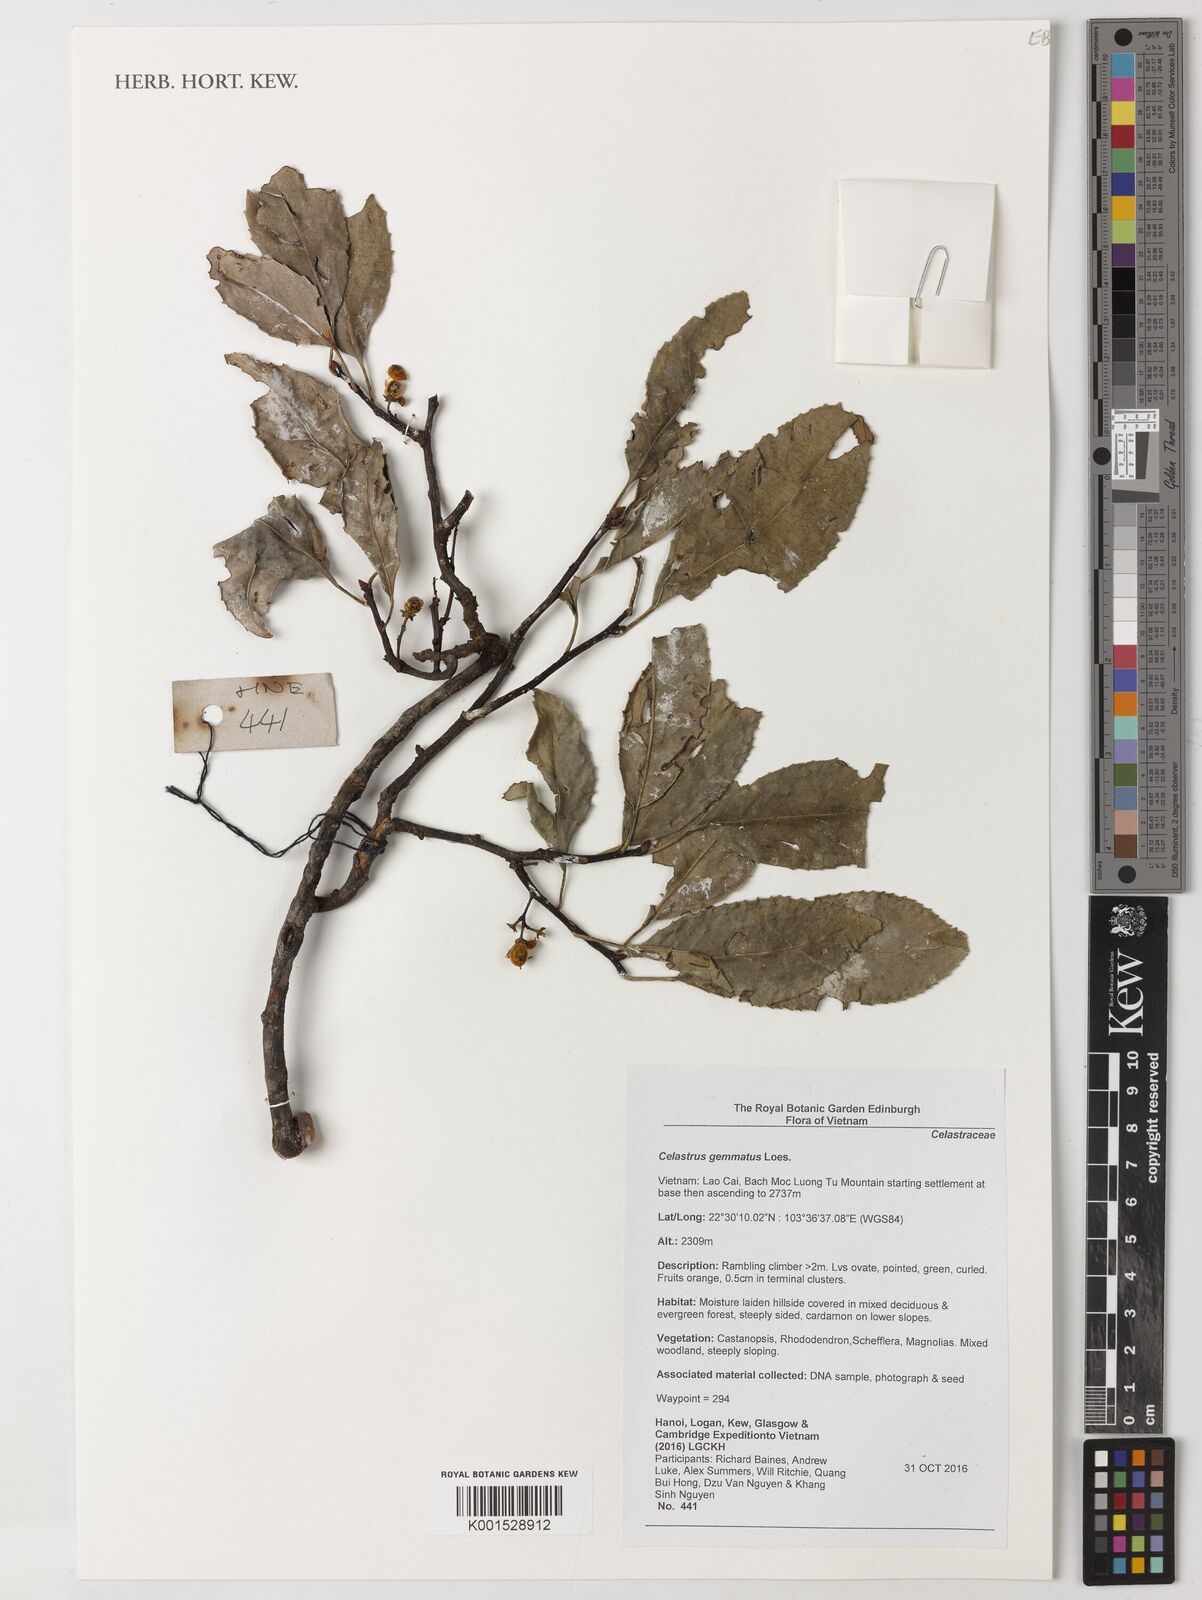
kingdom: Plantae
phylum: Tracheophyta
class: Magnoliopsida
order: Celastrales
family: Celastraceae
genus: Celastrus
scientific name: Celastrus gemmatus
